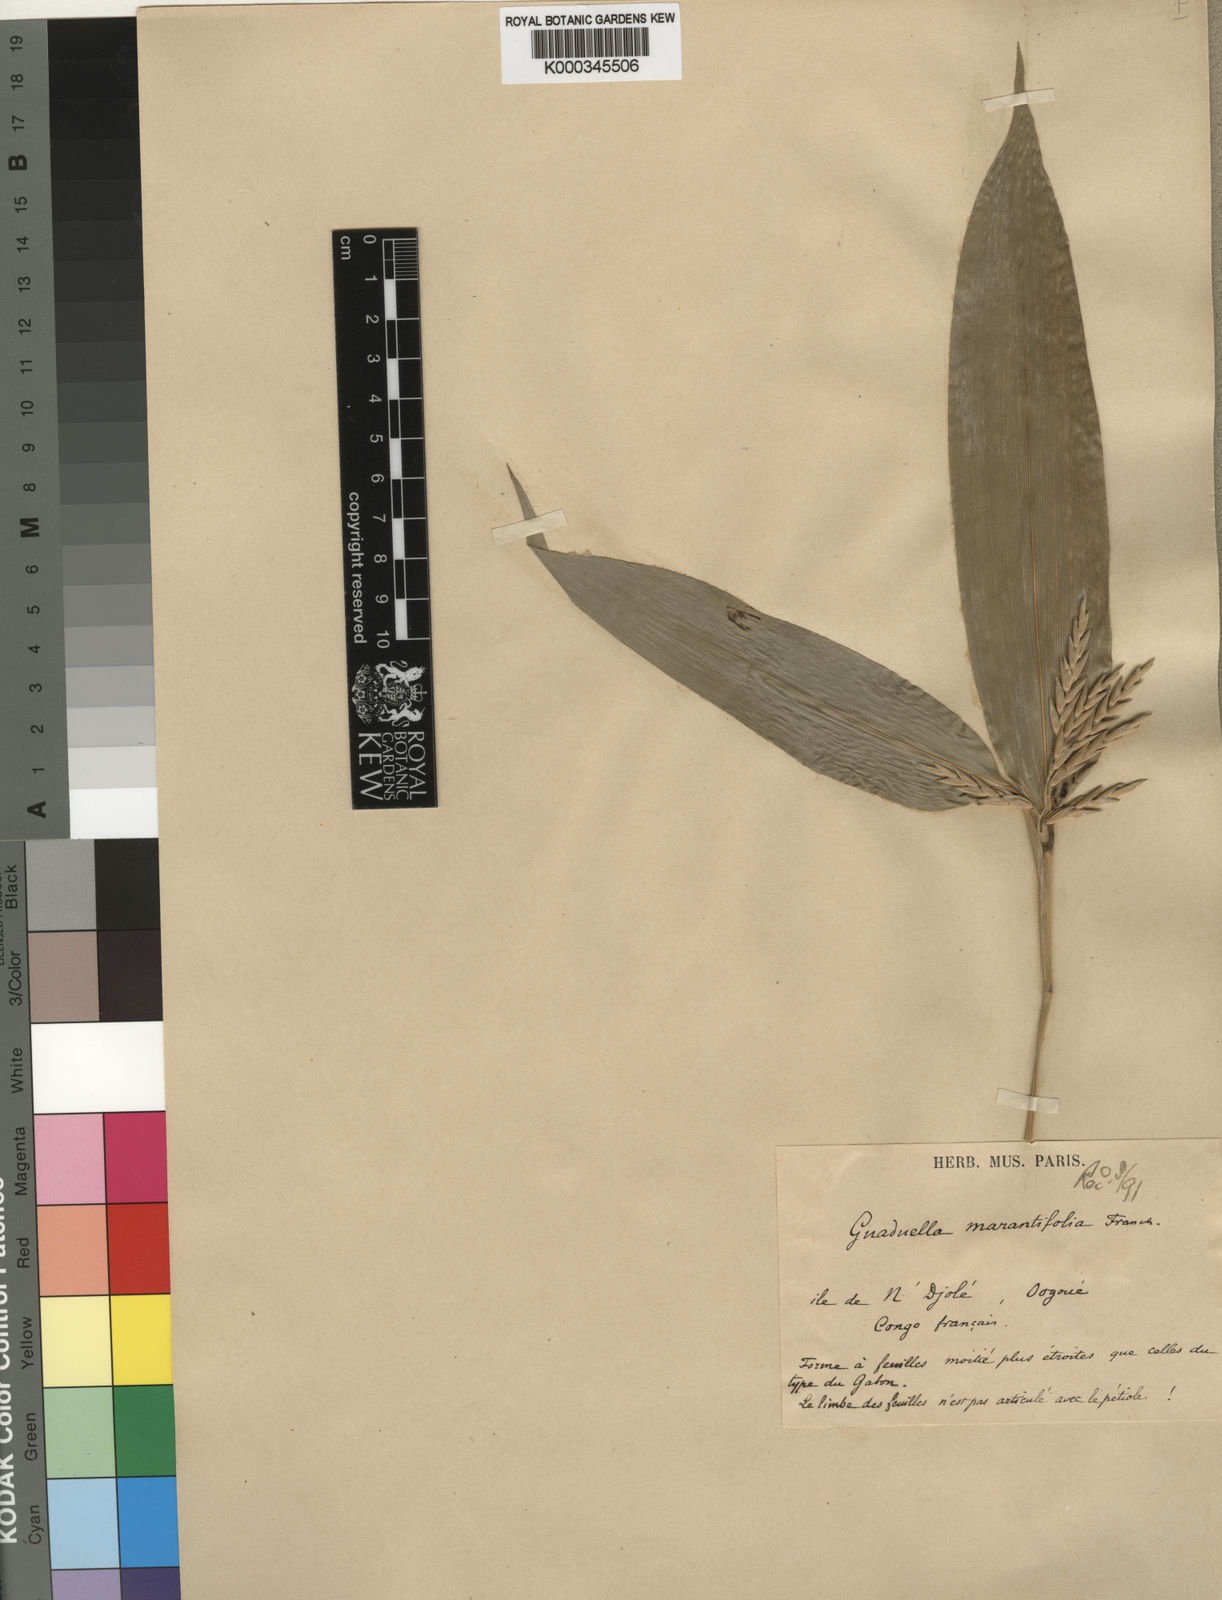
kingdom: Plantae
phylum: Tracheophyta
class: Liliopsida
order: Poales
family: Poaceae
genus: Guaduella
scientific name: Guaduella marantifolia
